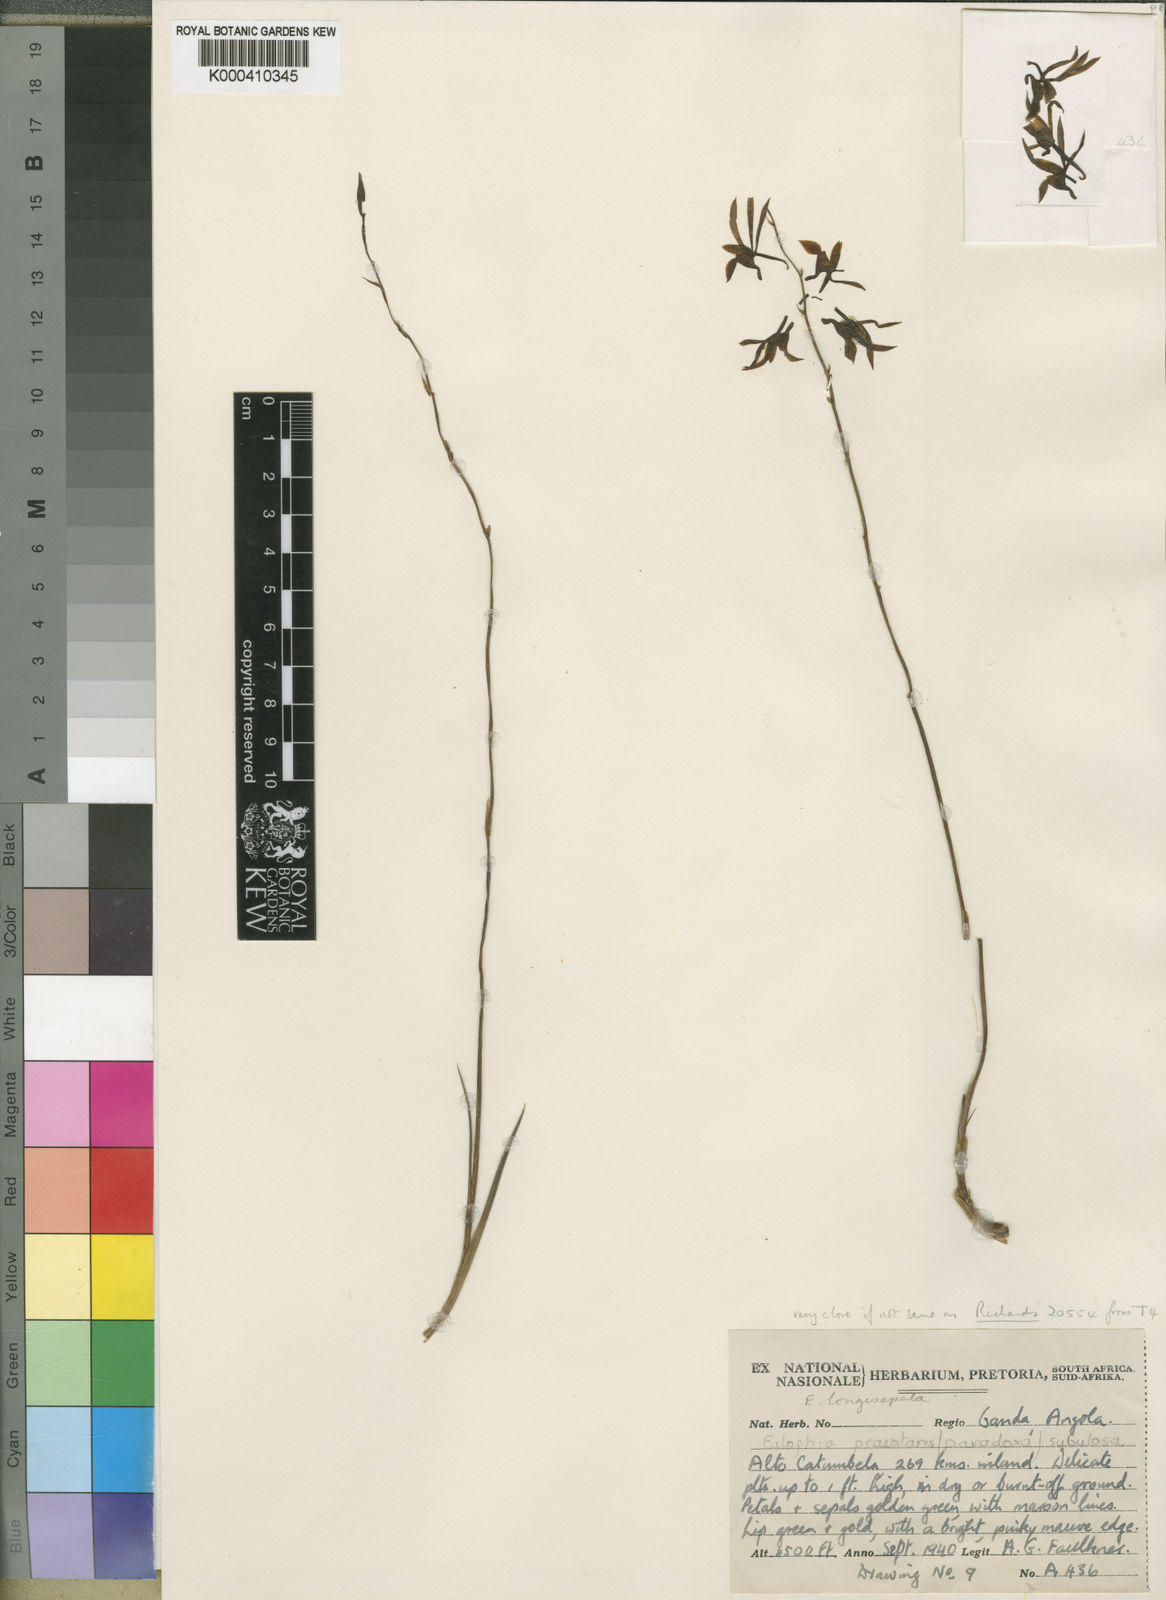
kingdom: Plantae
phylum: Tracheophyta
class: Liliopsida
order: Asparagales
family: Orchidaceae
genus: Eulophia
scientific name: Eulophia obstipa
